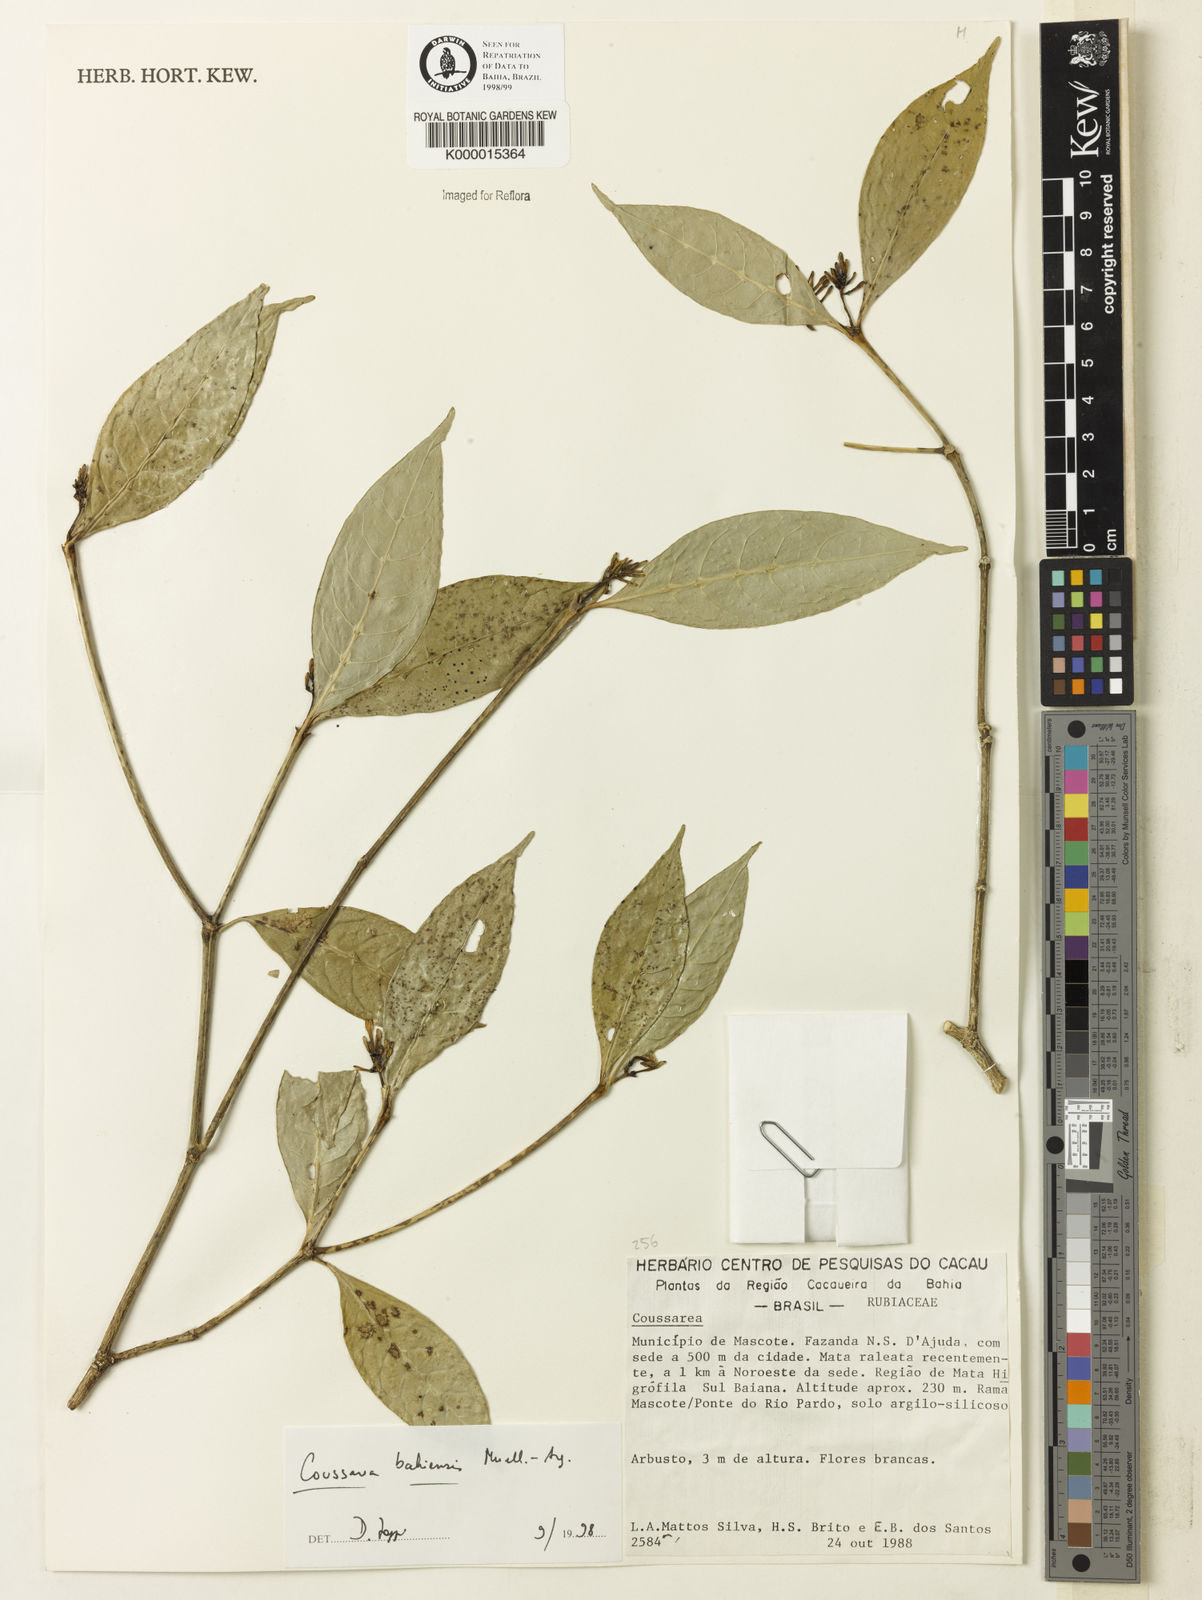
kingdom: Plantae
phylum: Tracheophyta
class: Magnoliopsida
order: Gentianales
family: Rubiaceae
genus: Coussarea
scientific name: Coussarea bahiensis
